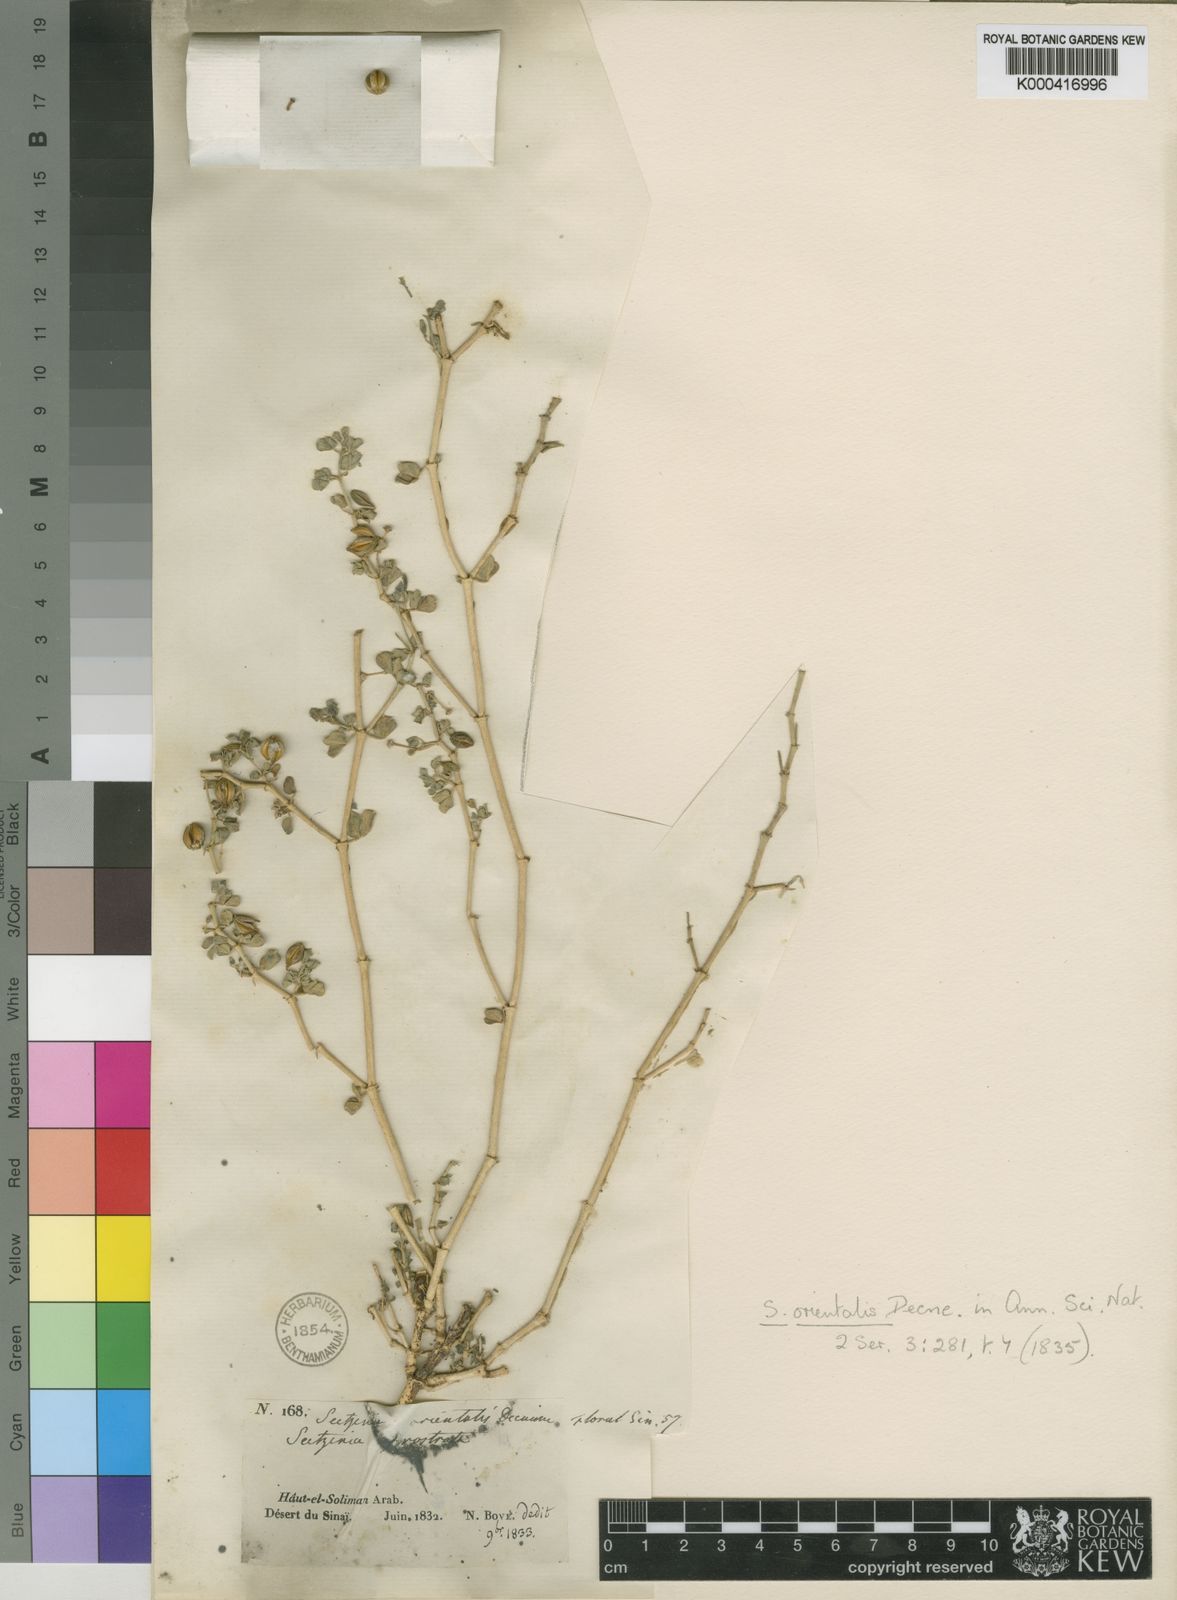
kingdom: Plantae
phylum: Tracheophyta
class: Magnoliopsida
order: Zygophyllales
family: Zygophyllaceae
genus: Seetzenia
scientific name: Seetzenia lanata
